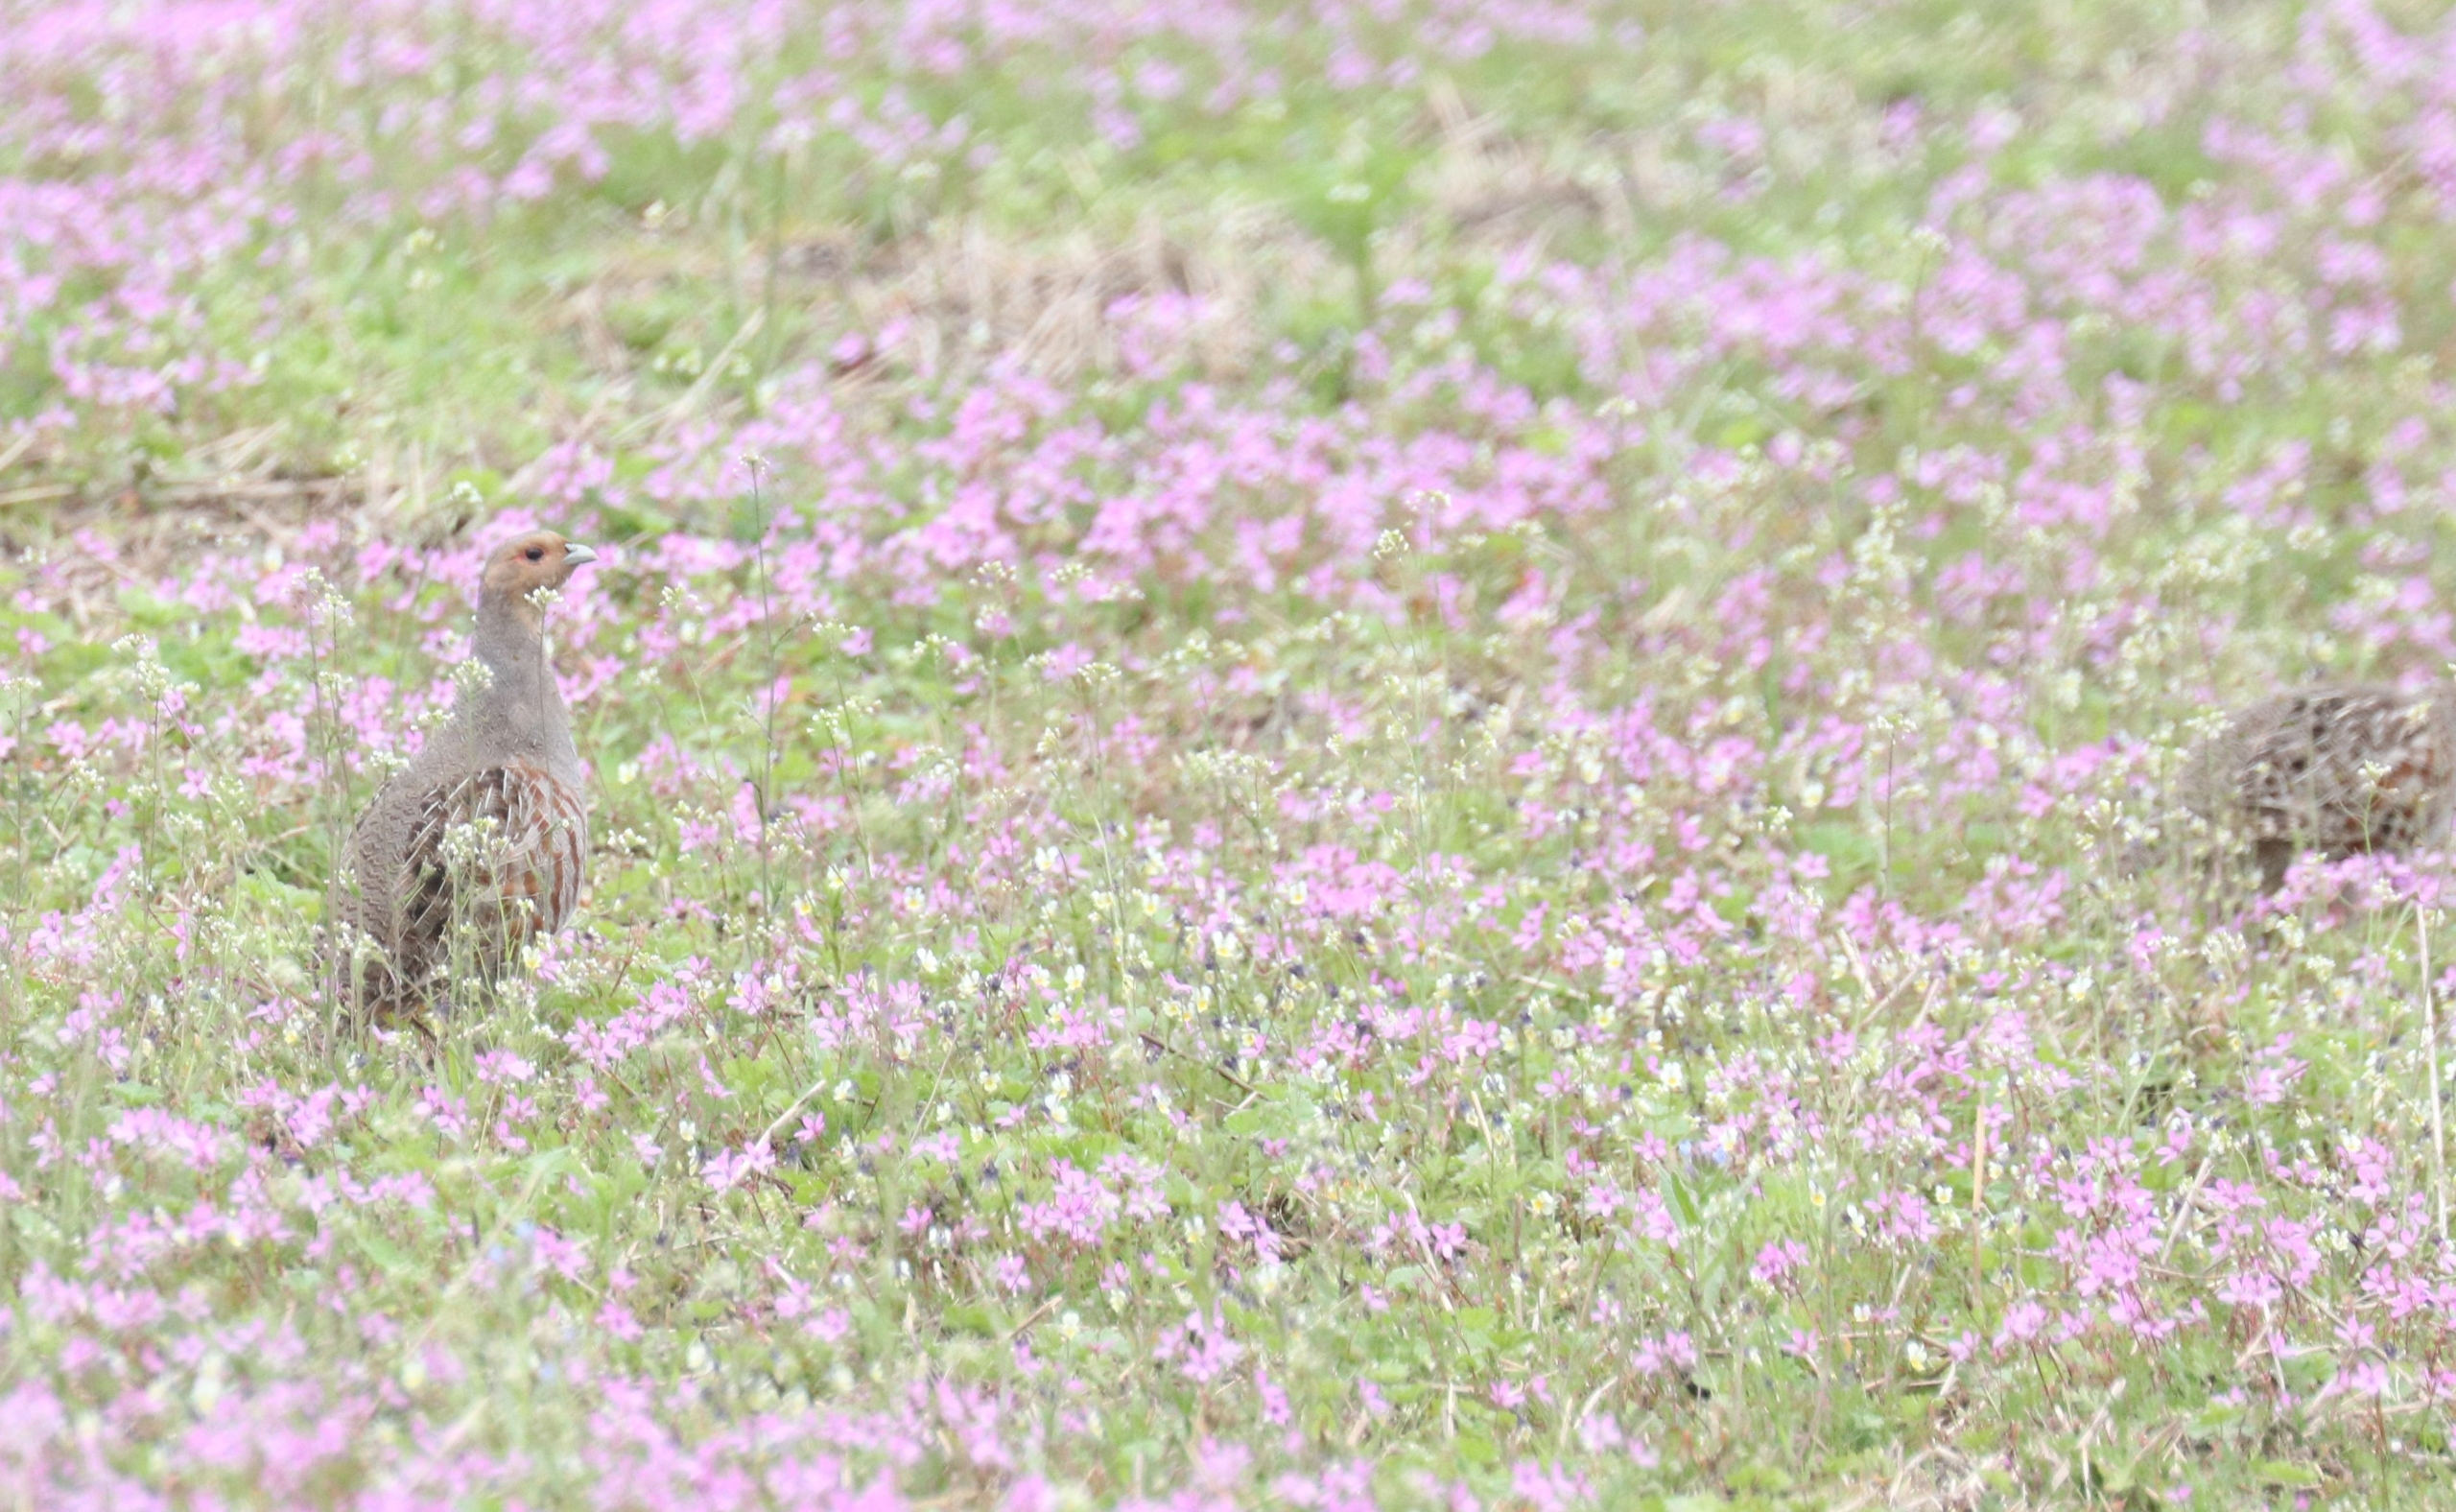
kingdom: Animalia
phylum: Chordata
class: Aves
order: Galliformes
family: Phasianidae
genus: Perdix
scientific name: Perdix perdix
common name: Agerhøne
